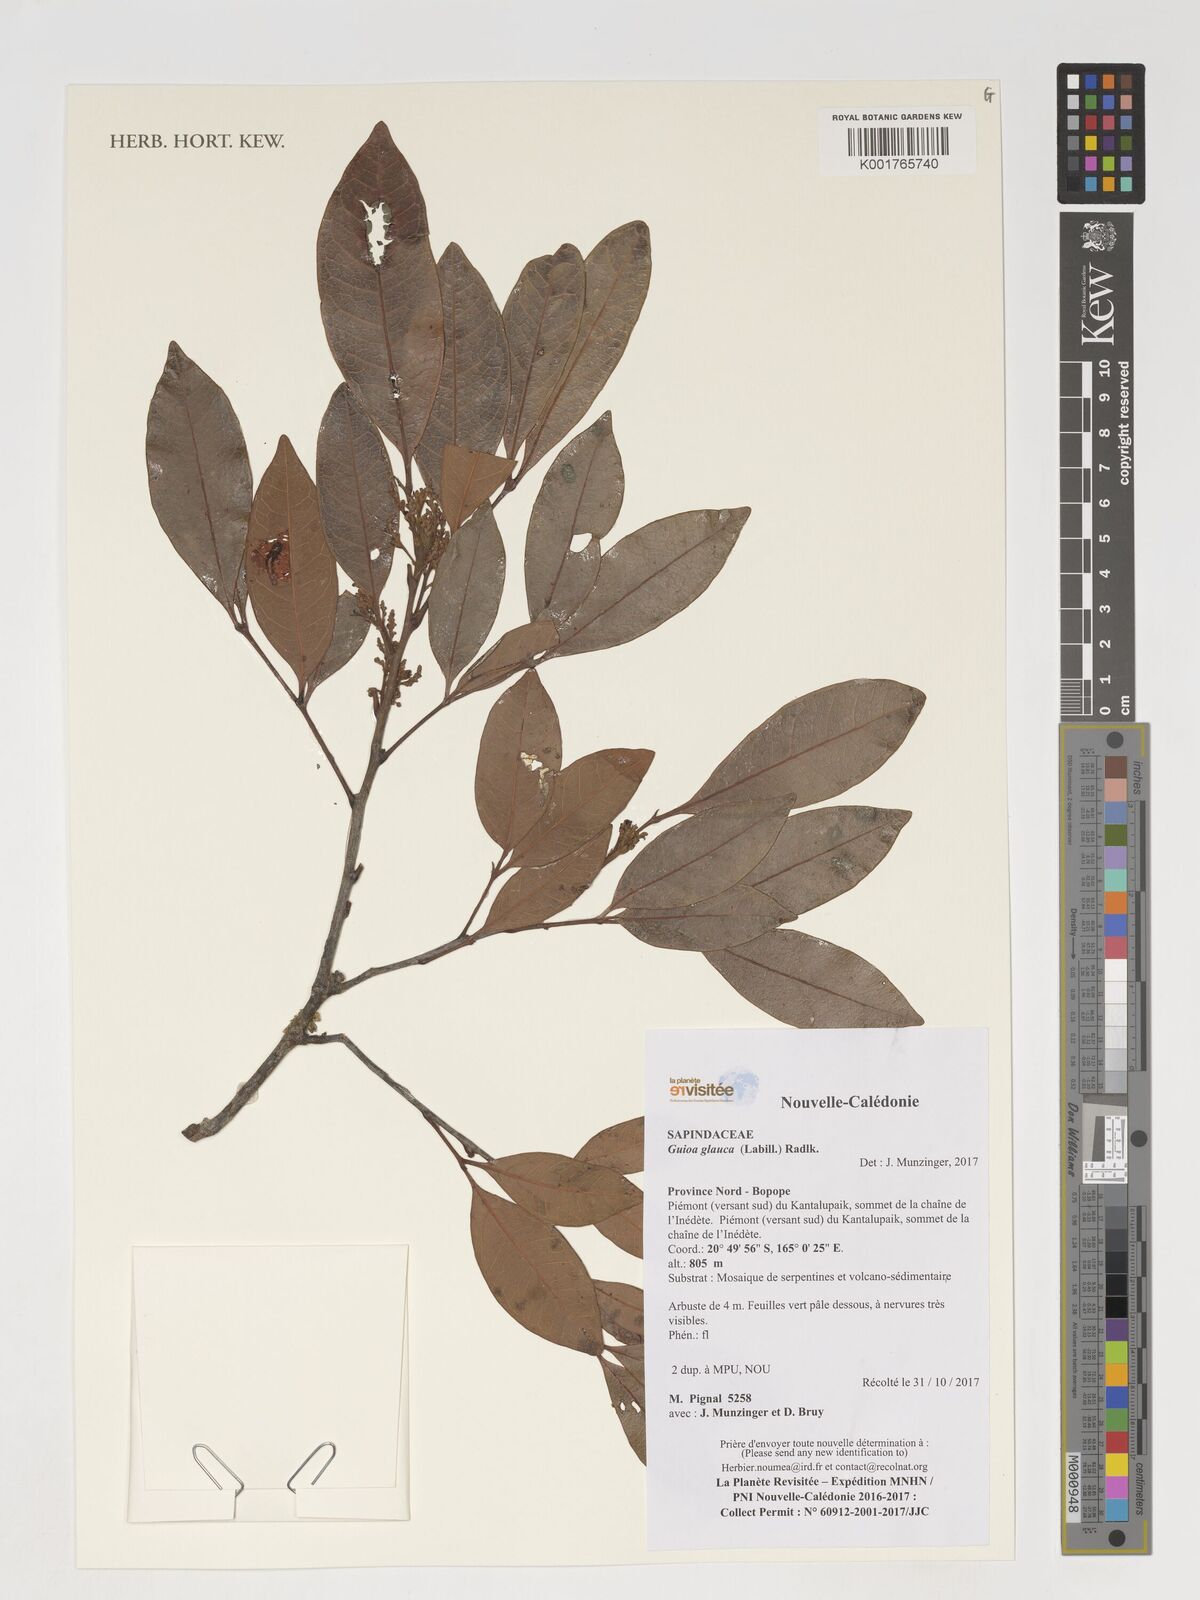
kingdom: Plantae
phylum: Tracheophyta
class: Magnoliopsida
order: Sapindales
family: Sapindaceae
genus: Guioa
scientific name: Guioa glauca
